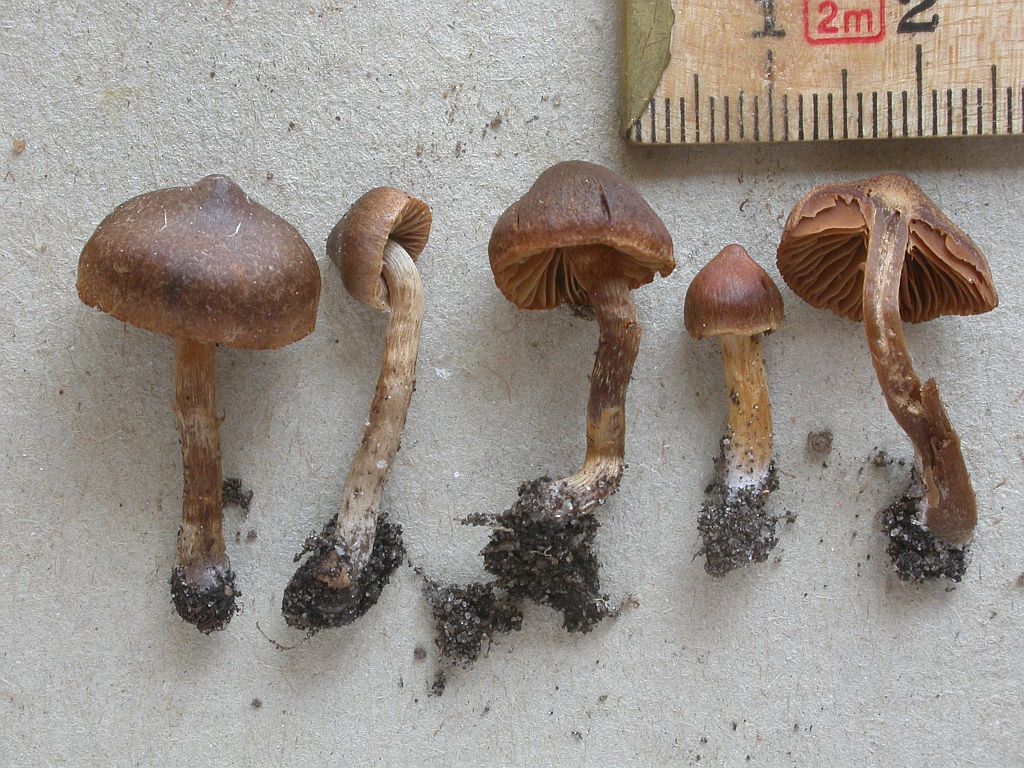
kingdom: Fungi
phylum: Basidiomycota
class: Agaricomycetes
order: Agaricales
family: Cortinariaceae
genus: Cortinarius
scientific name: Cortinarius saniosus
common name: gultrævlet slørhat
